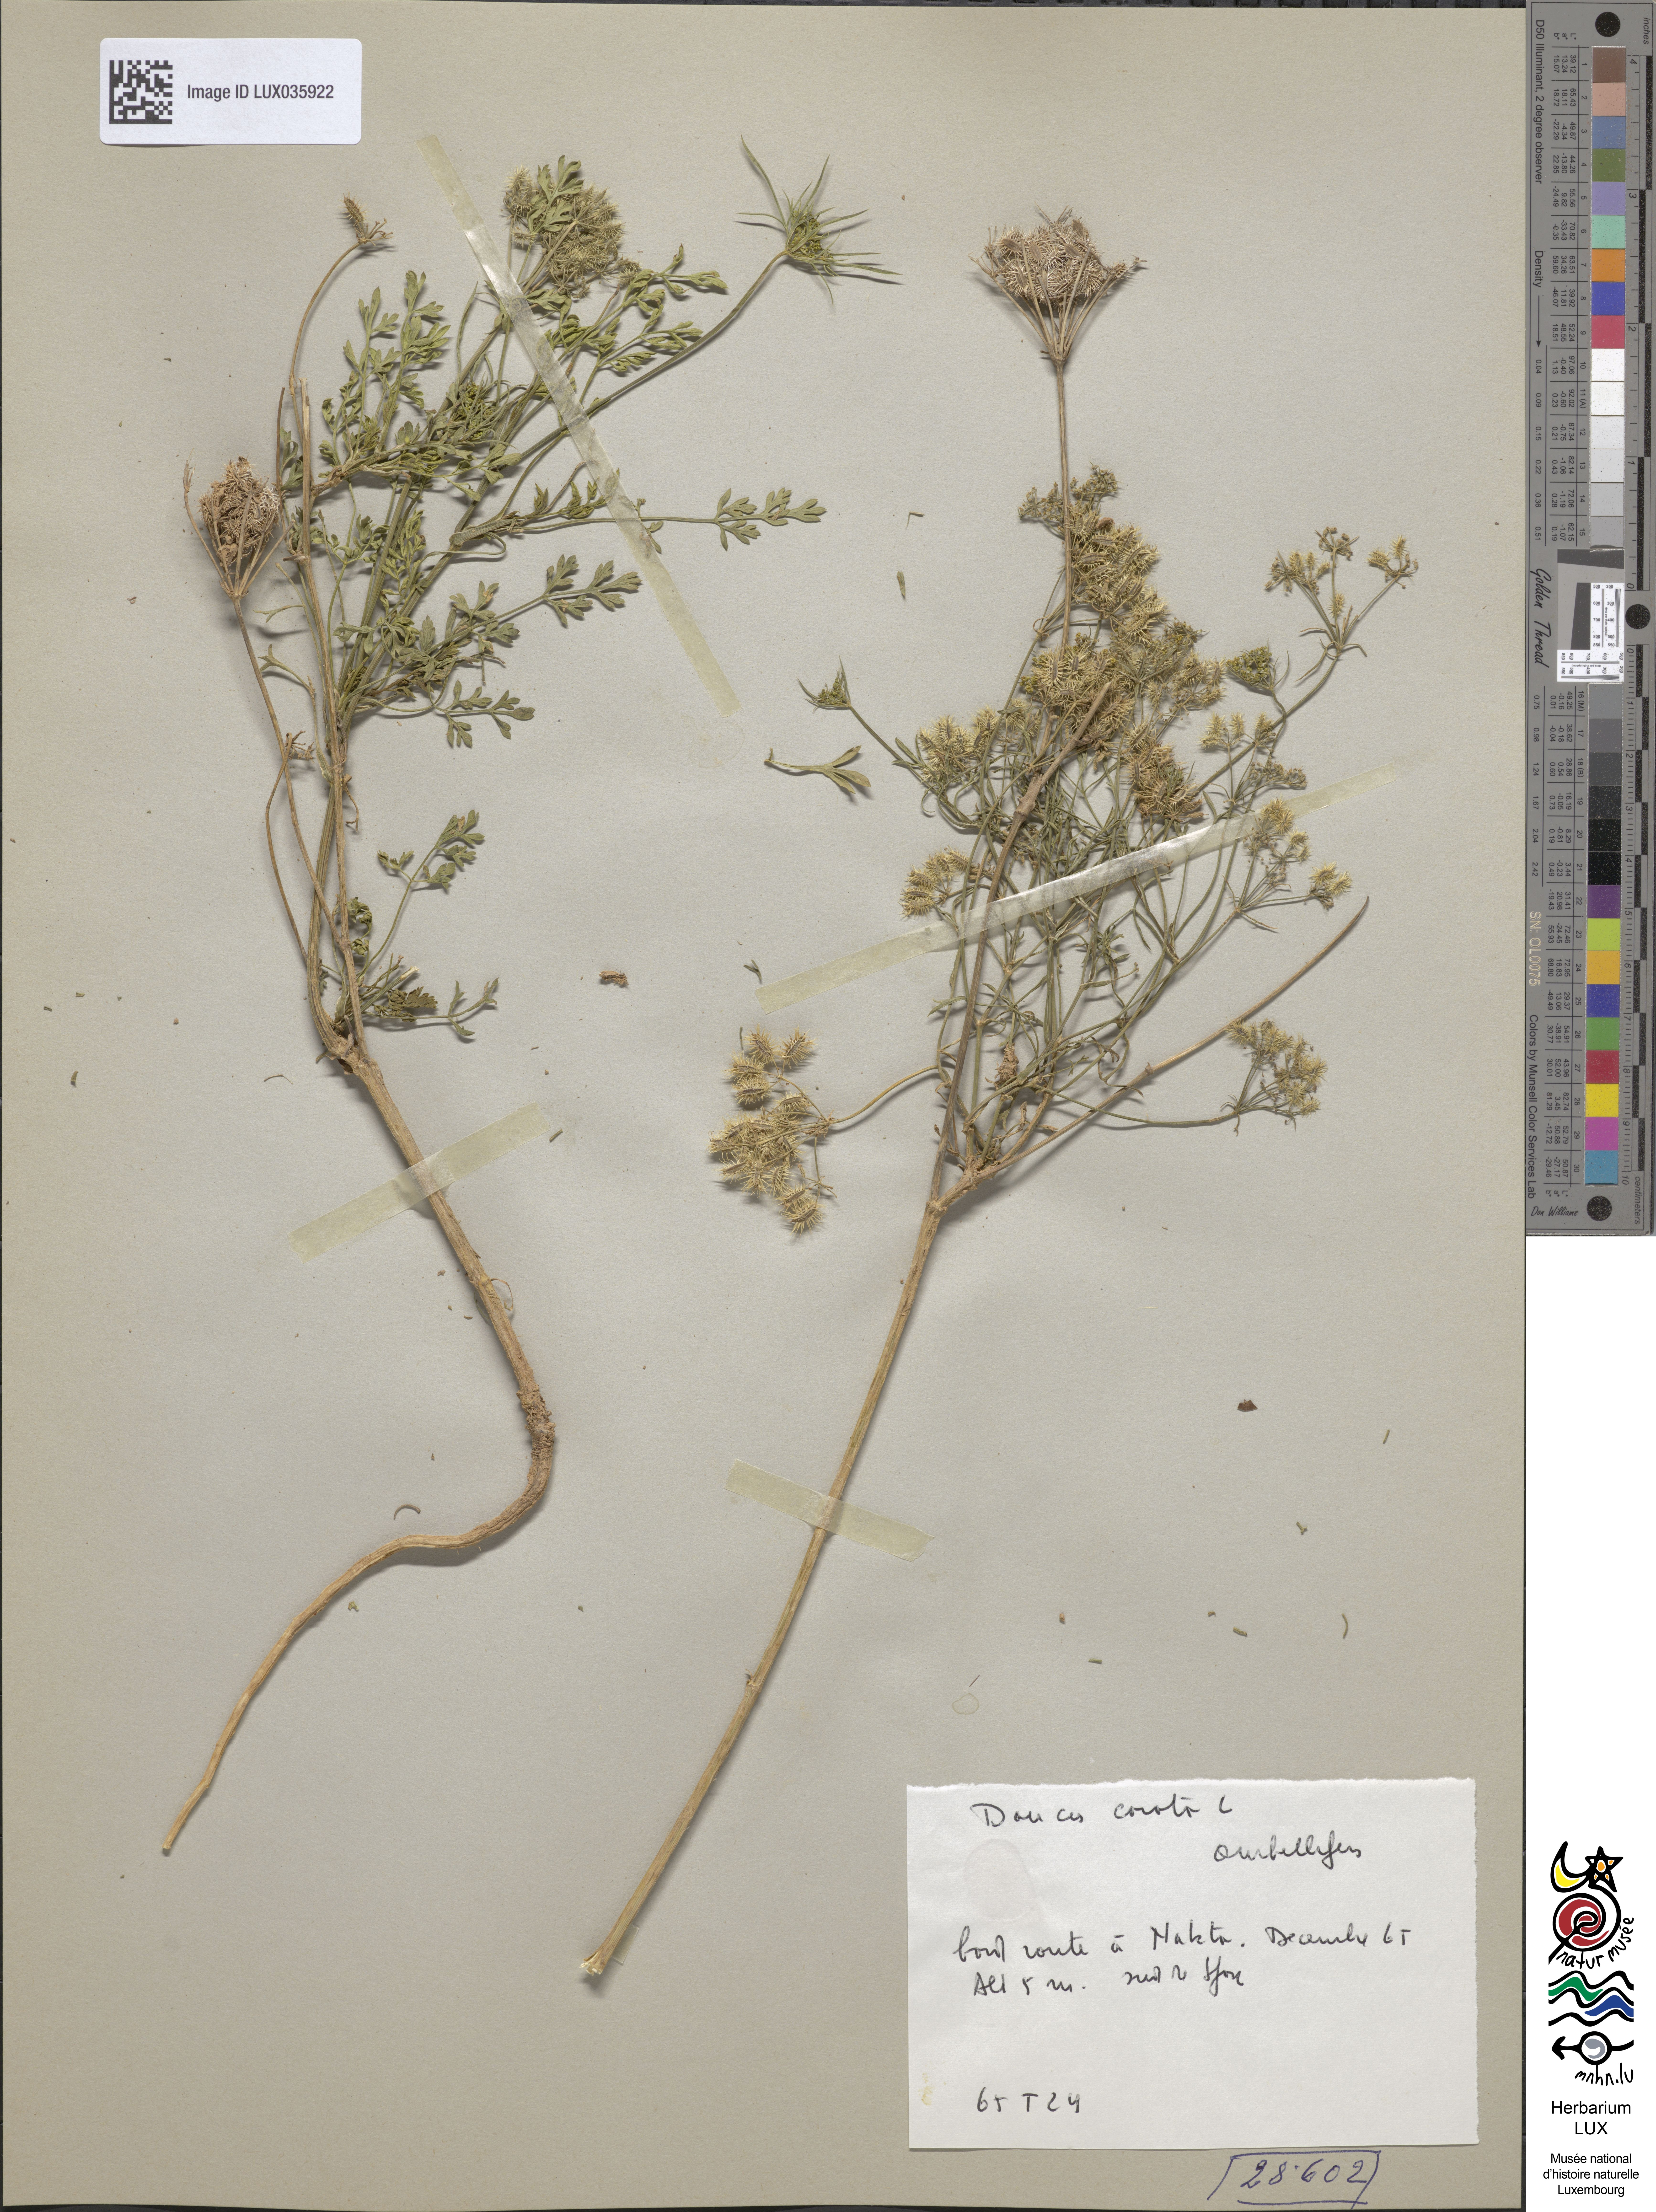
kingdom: Plantae
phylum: Tracheophyta
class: Magnoliopsida
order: Apiales
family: Apiaceae
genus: Daucus
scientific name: Daucus carota
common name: Wild carrot
